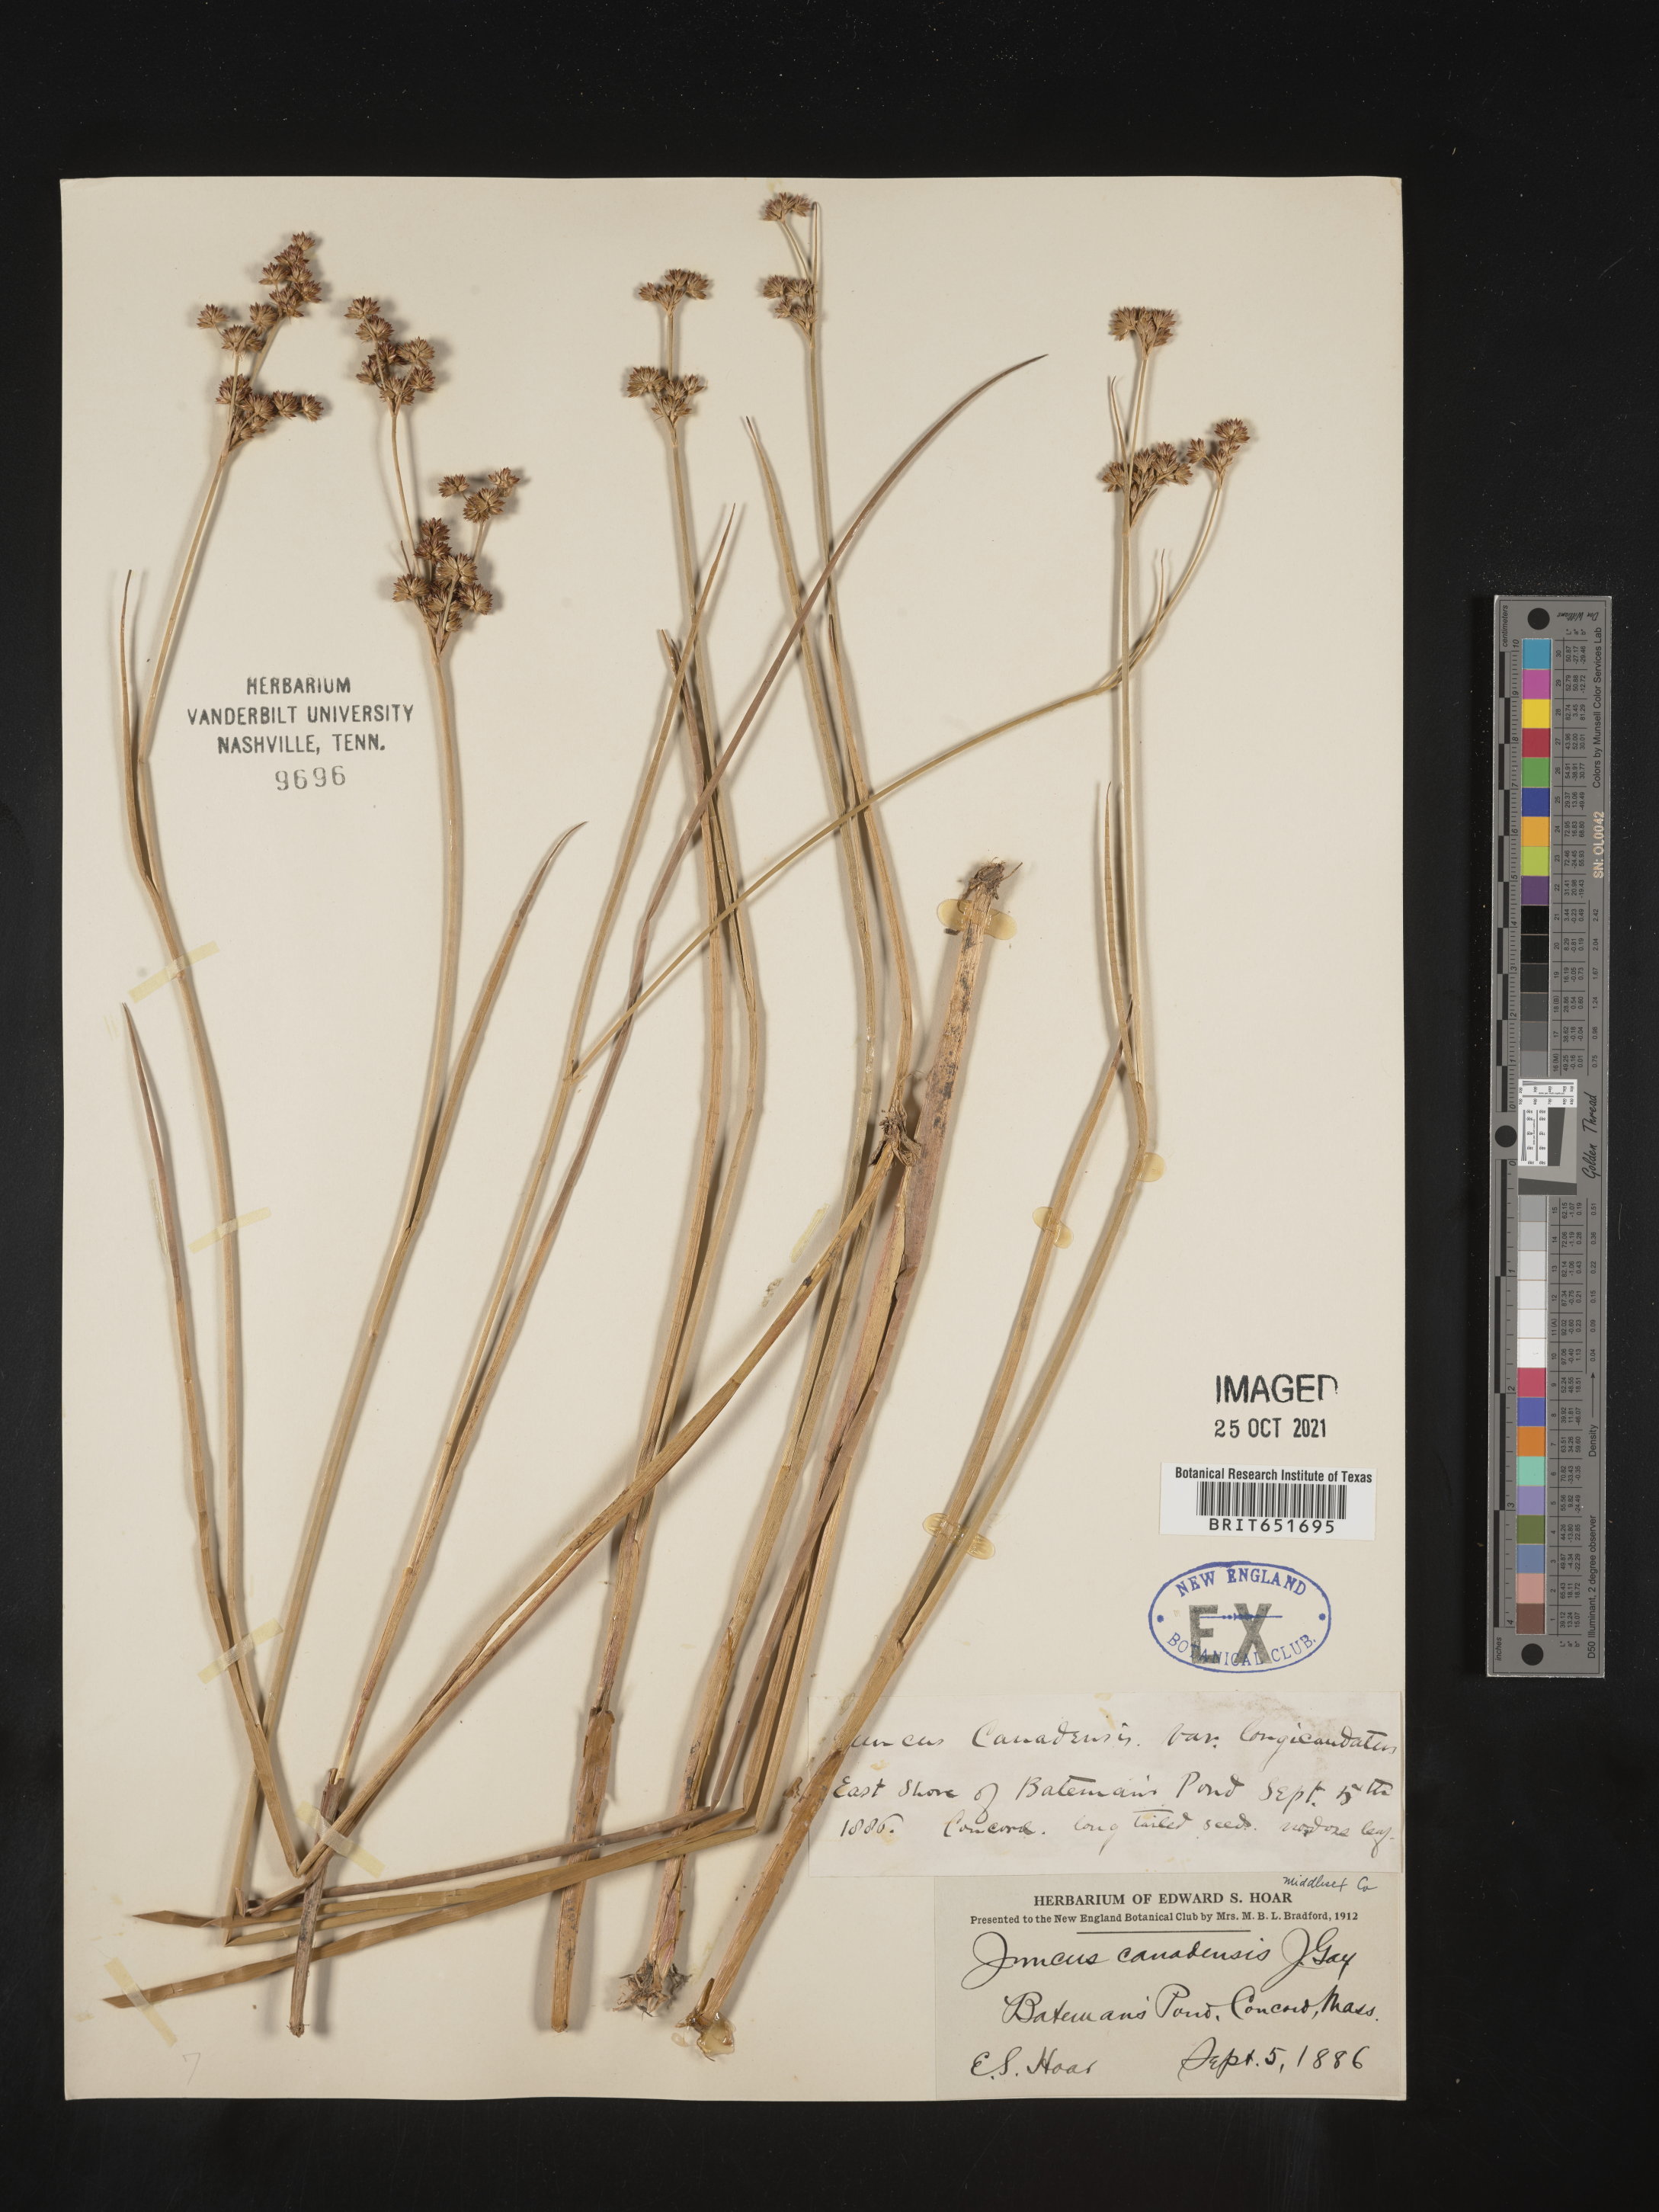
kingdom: Plantae
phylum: Tracheophyta
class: Liliopsida
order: Poales
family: Juncaceae
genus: Juncus
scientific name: Juncus canadensis
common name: Canada rush
